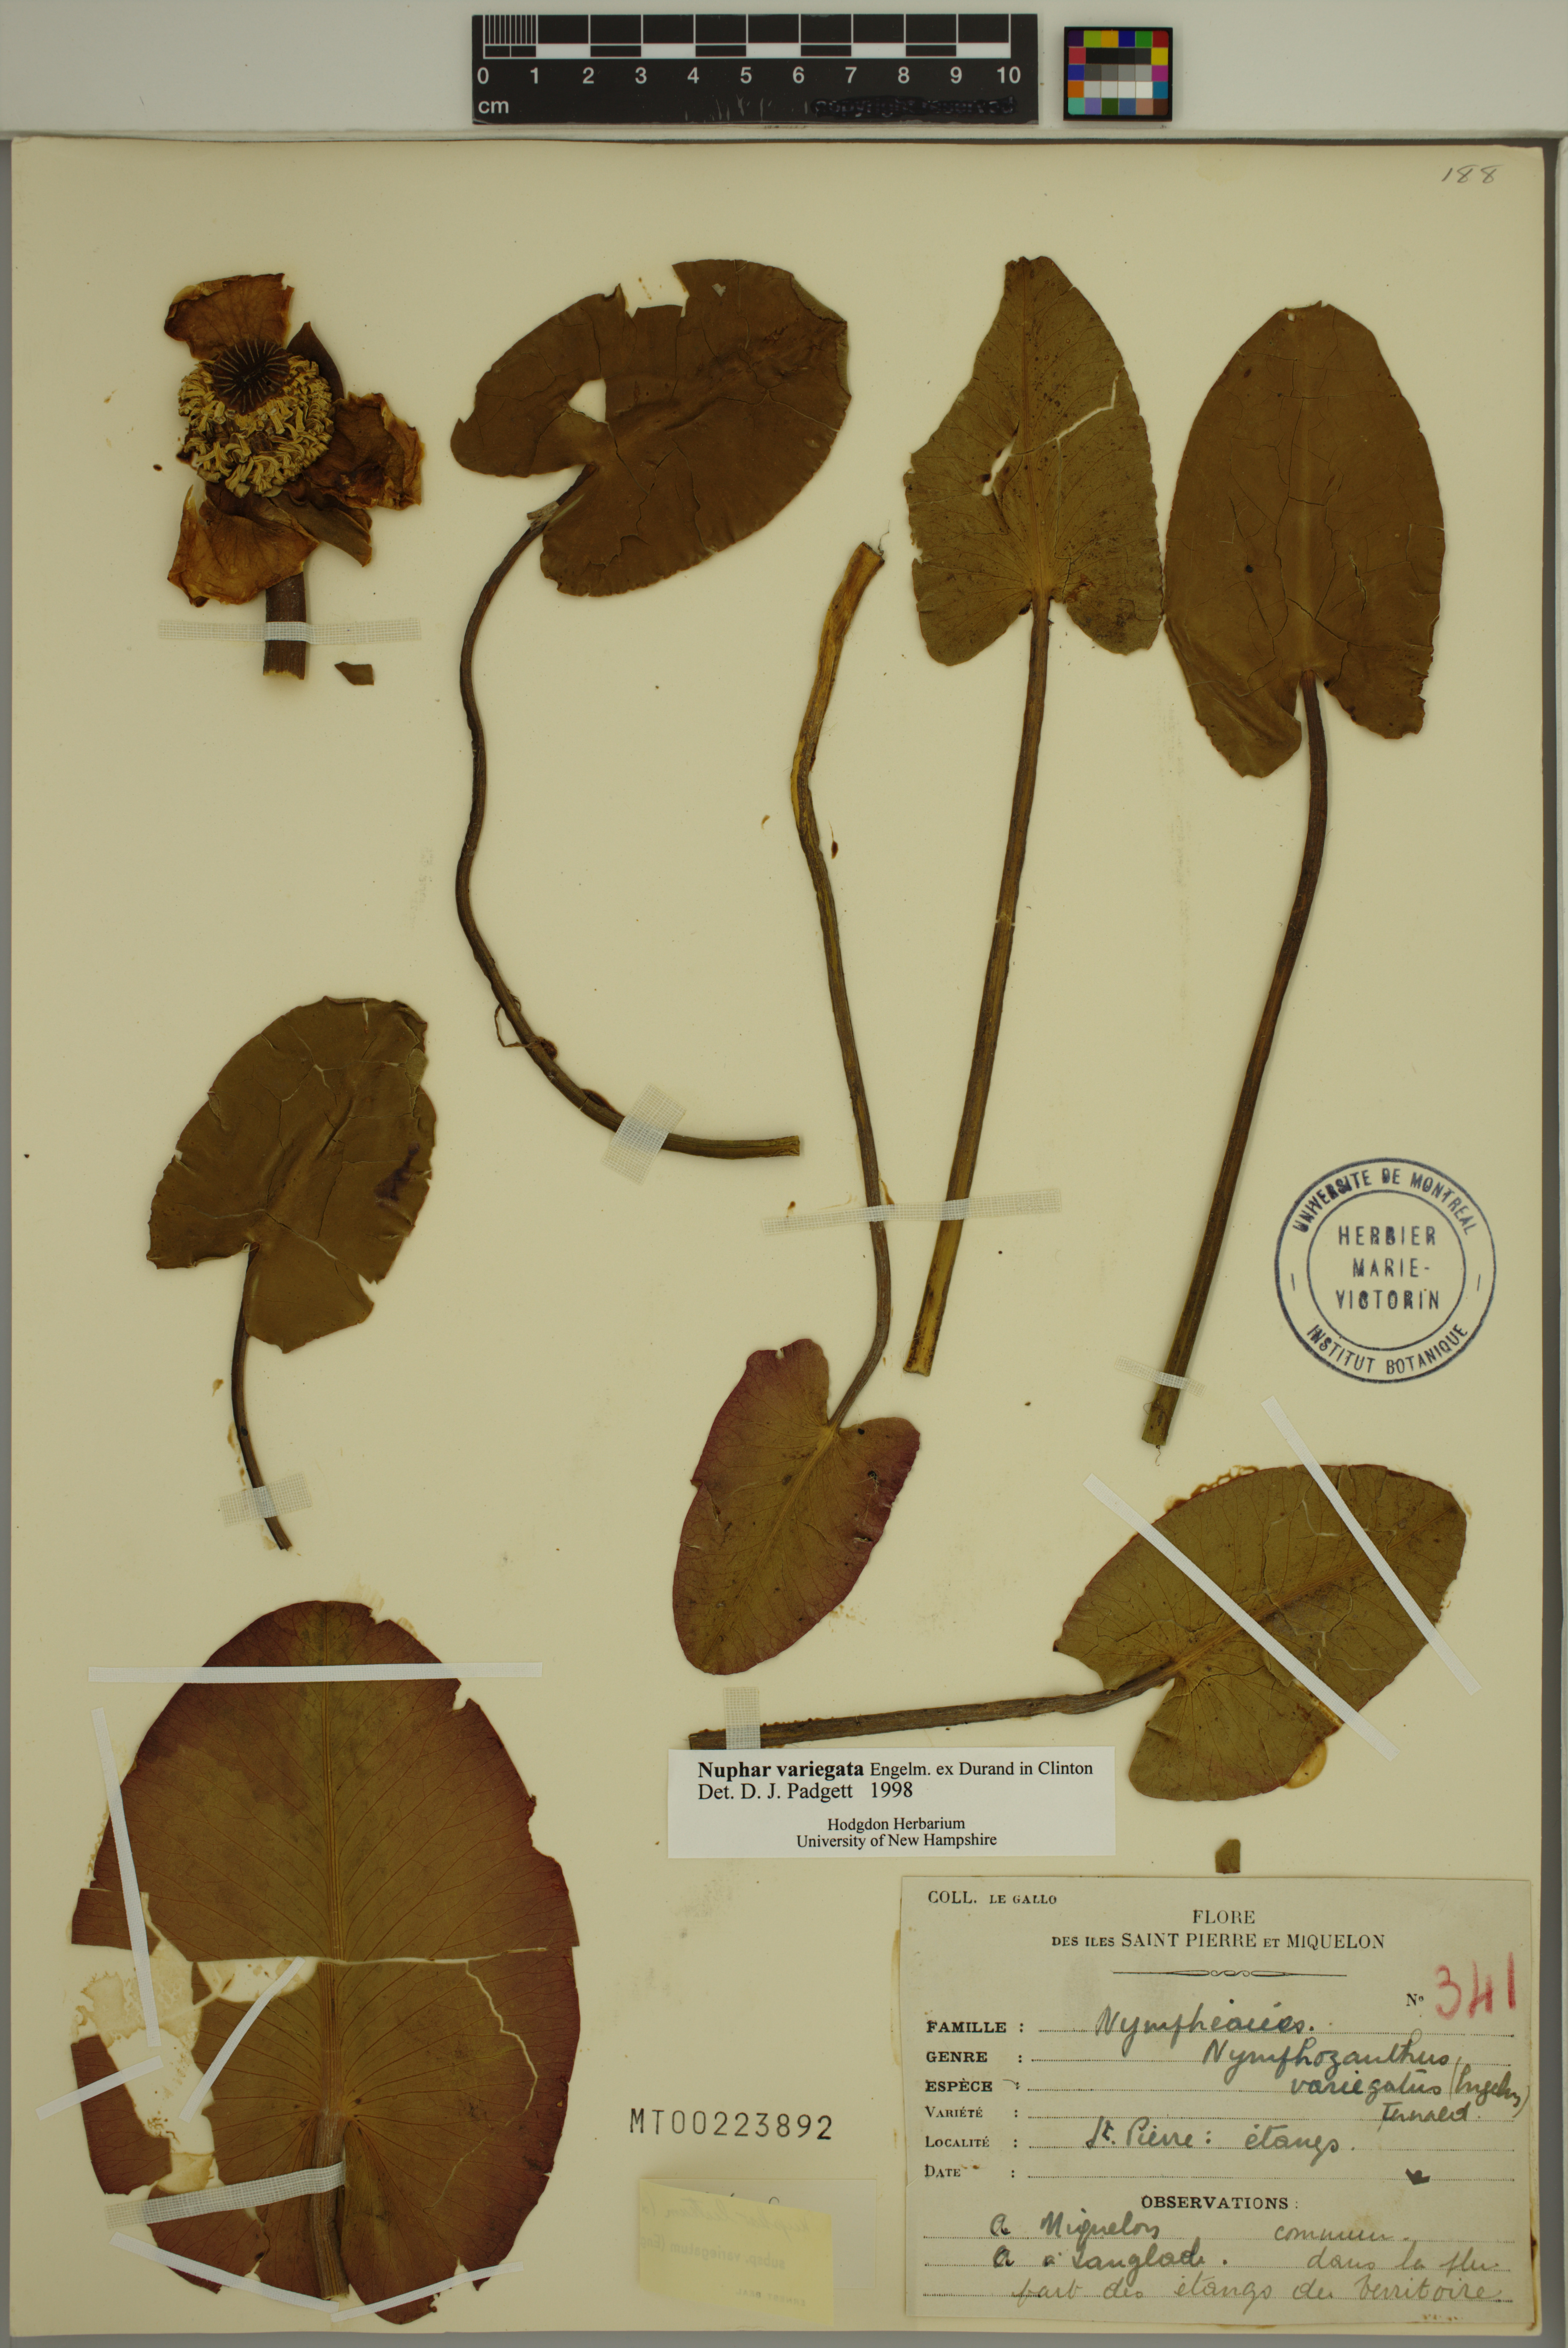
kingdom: Plantae
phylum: Tracheophyta
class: Magnoliopsida
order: Nymphaeales
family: Nymphaeaceae
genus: Nuphar
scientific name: Nuphar variegata
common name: Beaver-root
